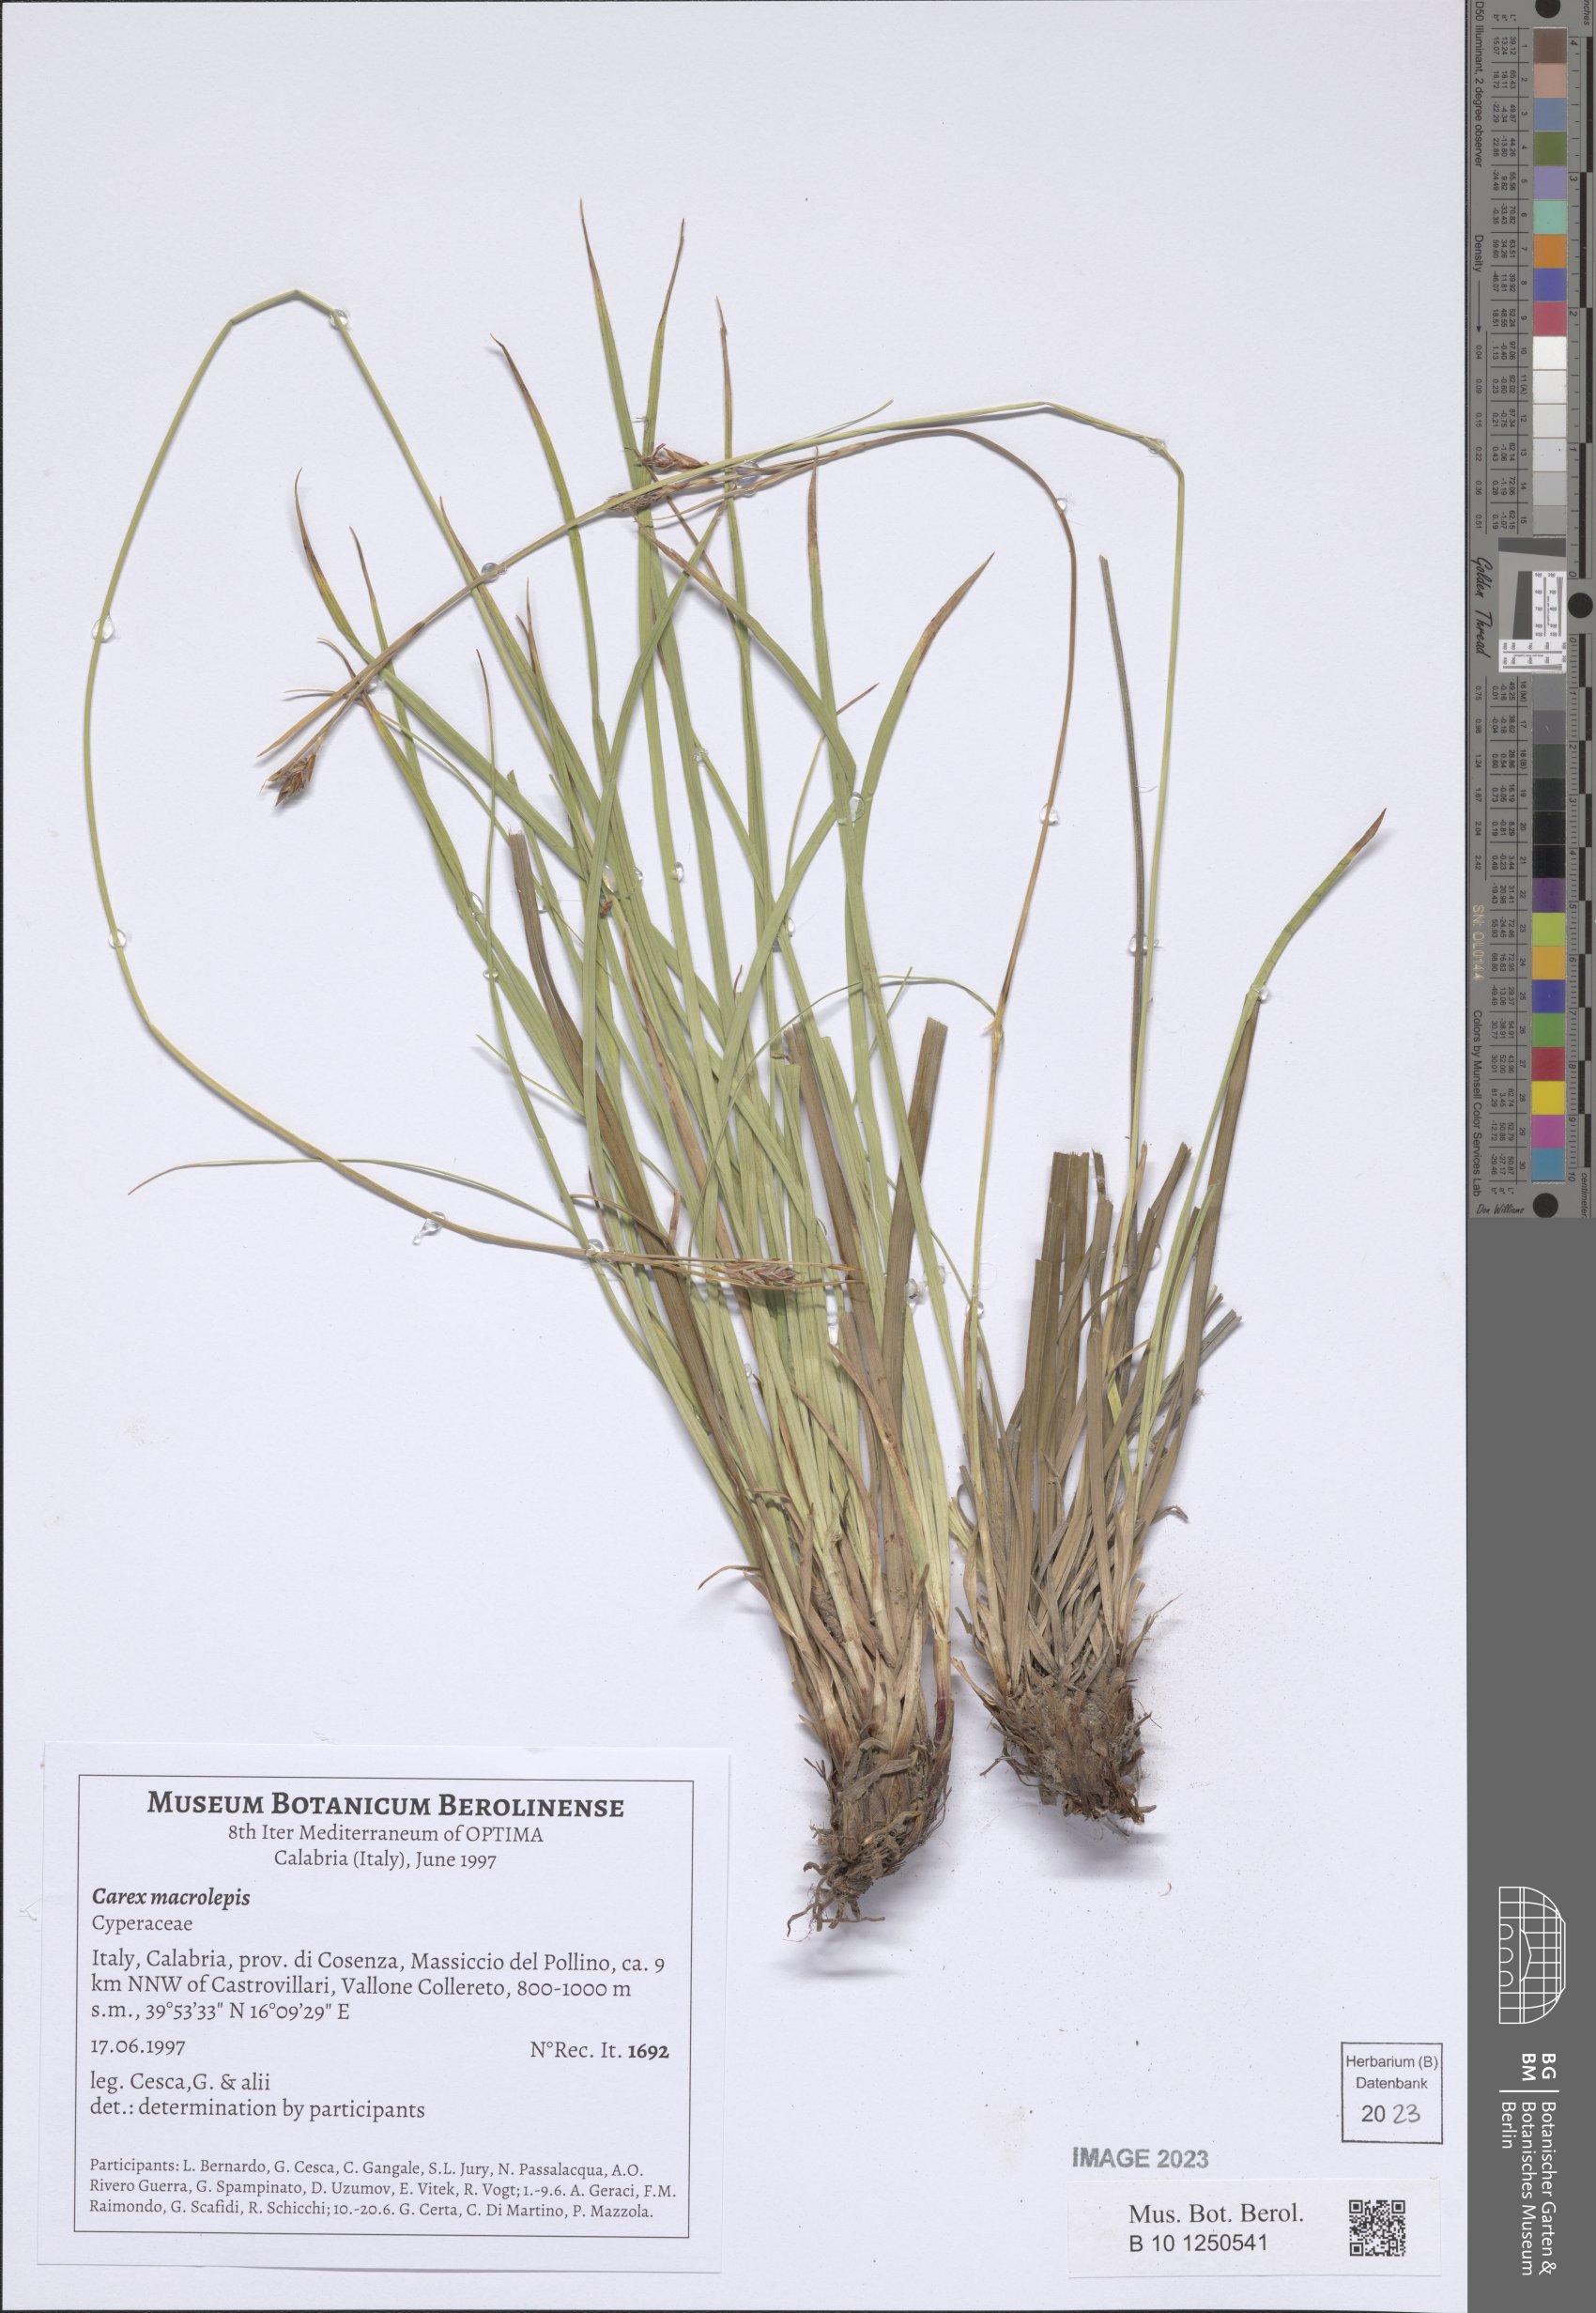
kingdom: Plantae
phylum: Tracheophyta
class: Liliopsida
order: Poales
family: Cyperaceae
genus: Carex
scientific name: Carex macrolepis
